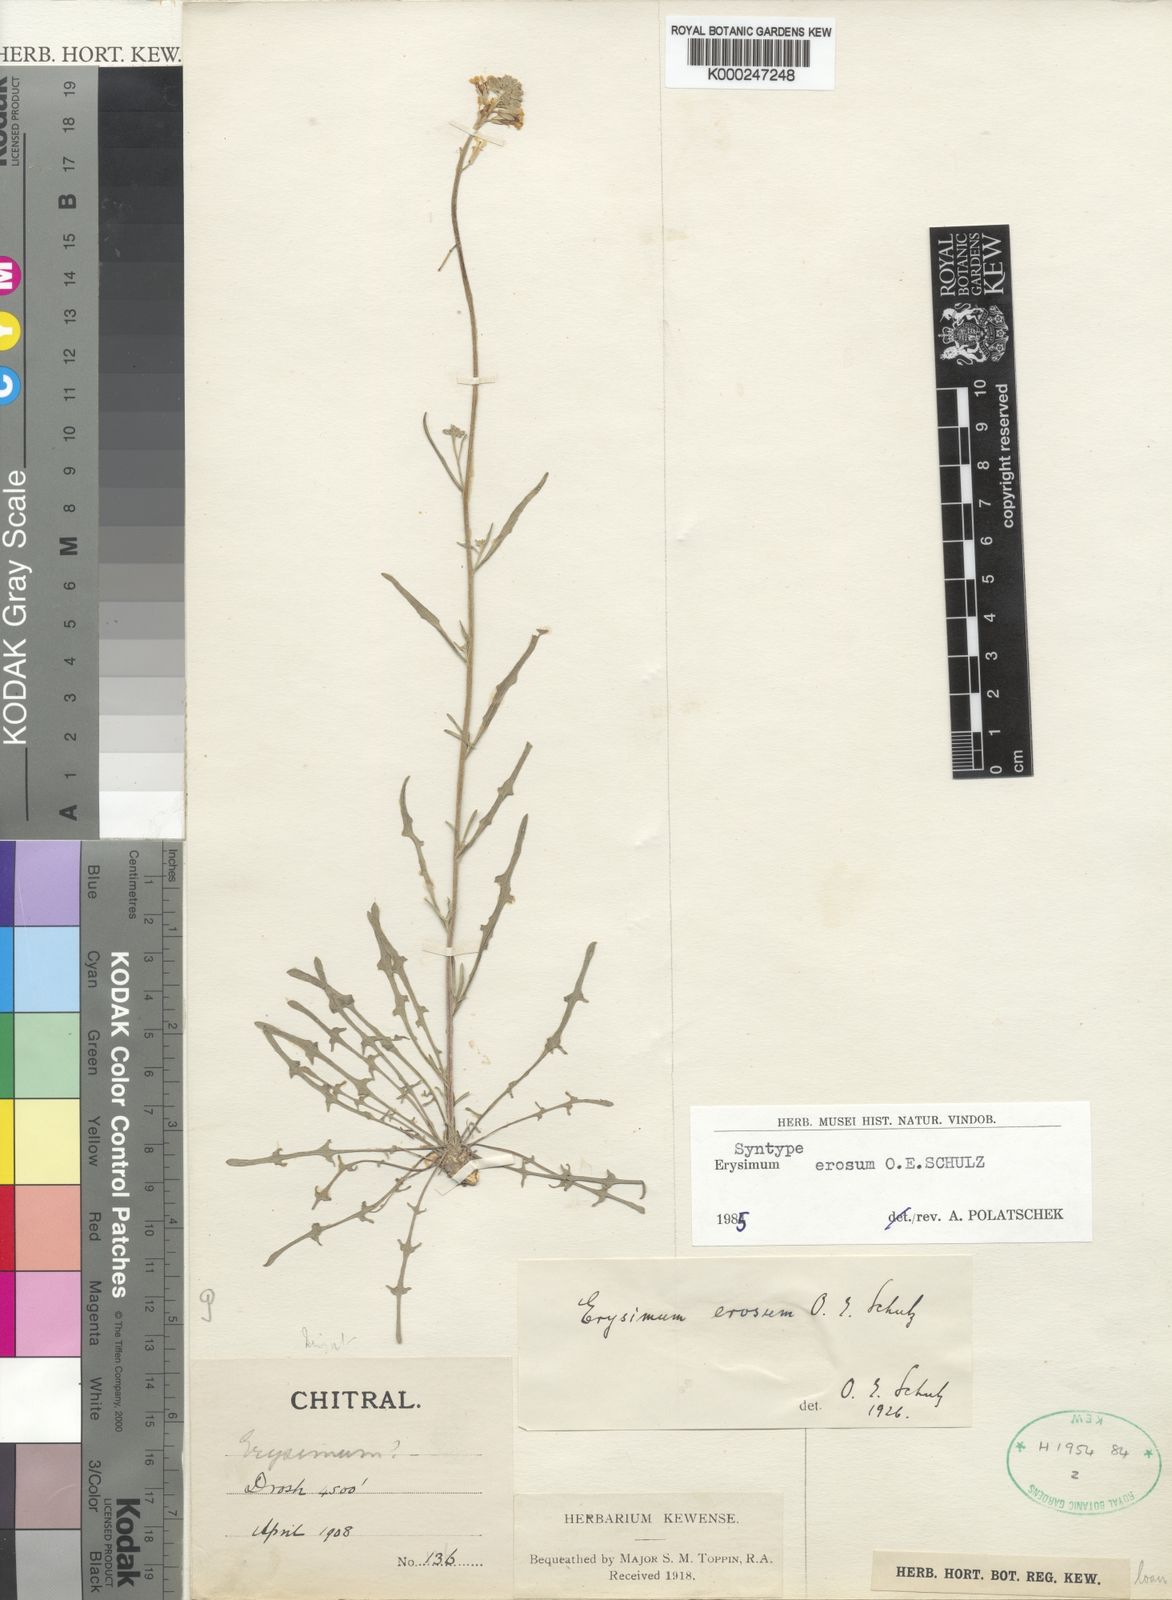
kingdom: Plantae
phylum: Tracheophyta
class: Magnoliopsida
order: Brassicales
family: Brassicaceae
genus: Erysimum
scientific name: Erysimum erosum
